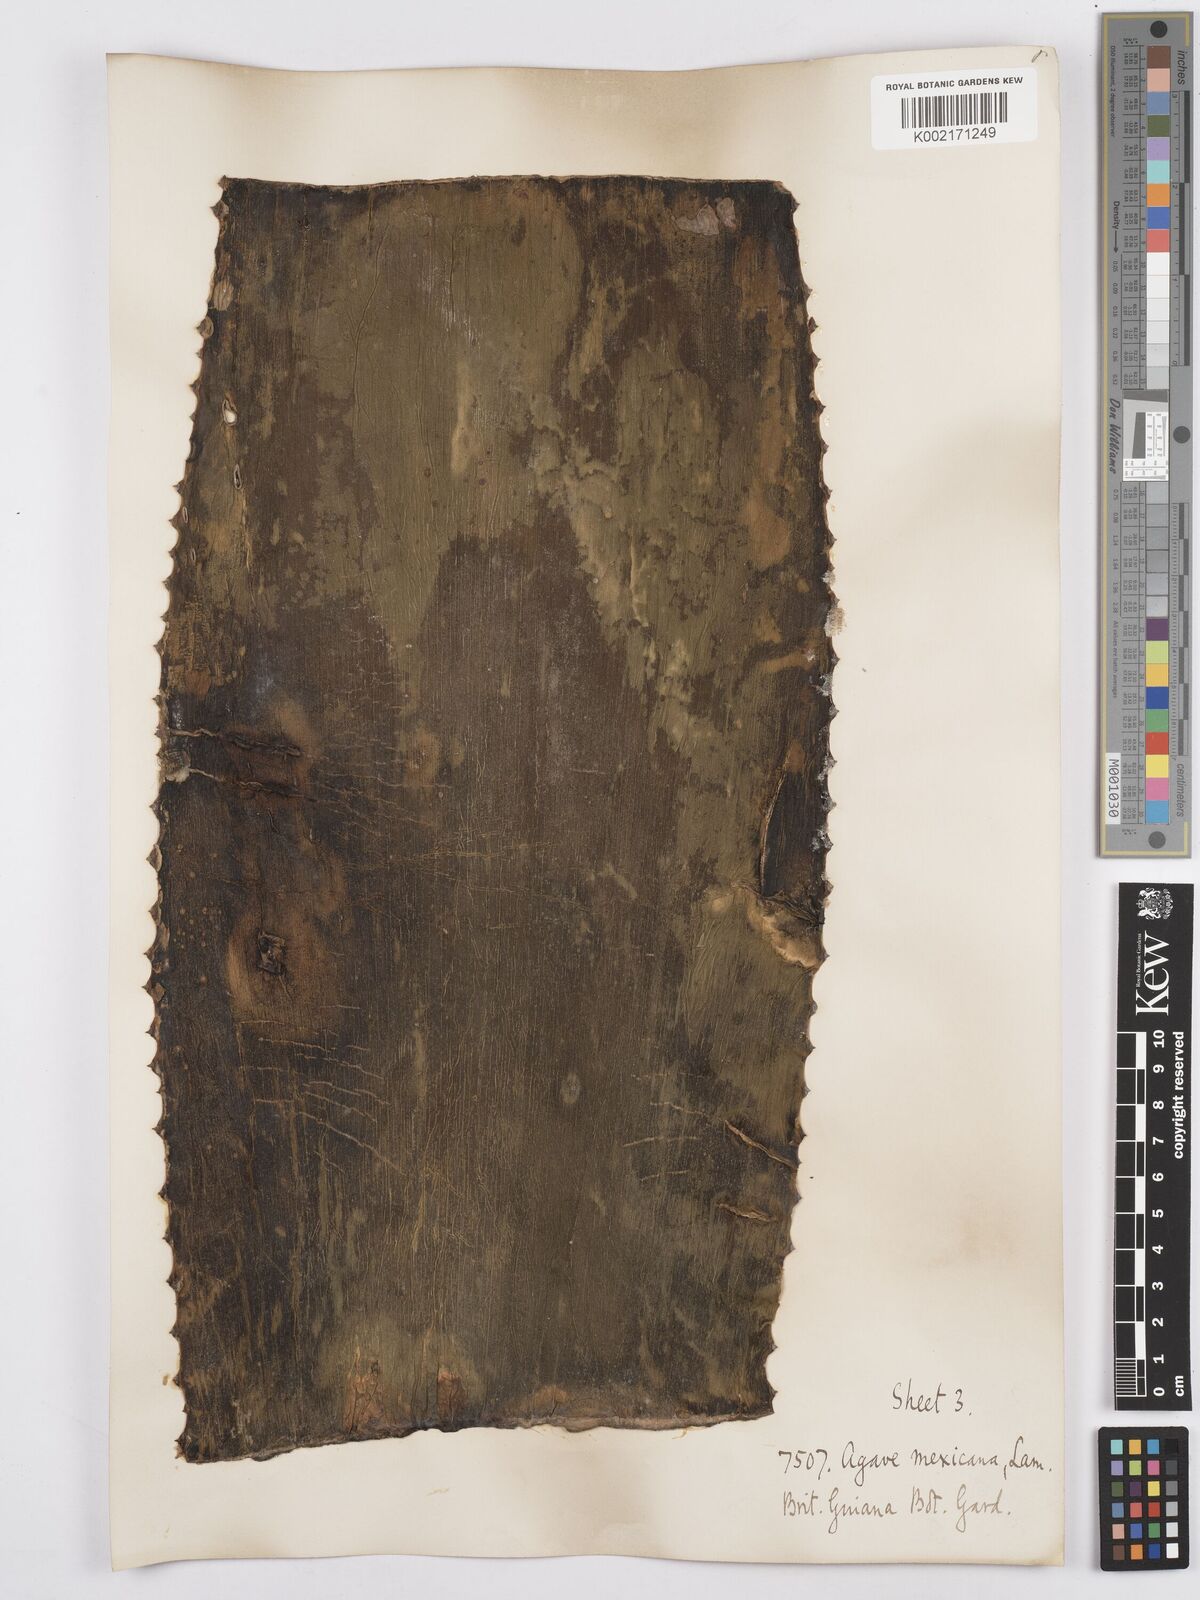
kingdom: Plantae
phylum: Tracheophyta
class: Liliopsida
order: Asparagales
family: Asparagaceae
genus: Agave
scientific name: Agave americana
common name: Centuryplant
